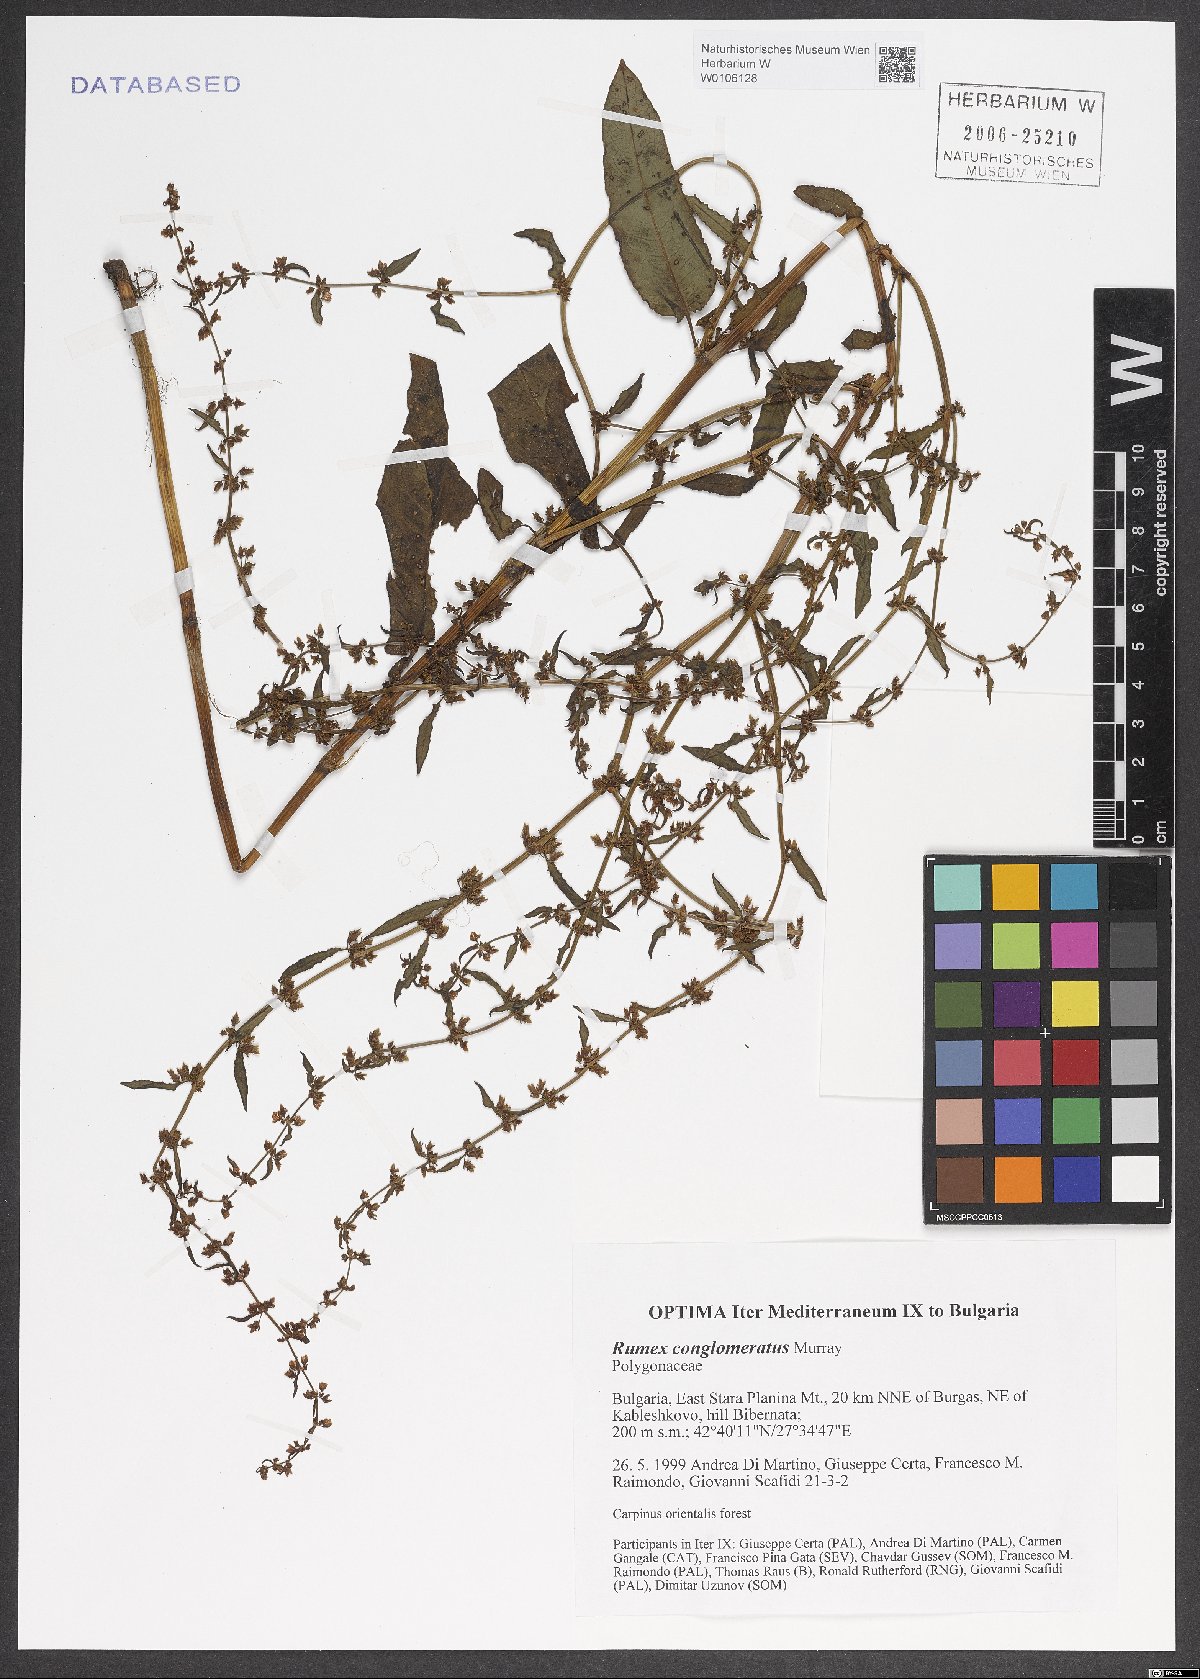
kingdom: Plantae
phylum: Tracheophyta
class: Magnoliopsida
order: Caryophyllales
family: Polygonaceae
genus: Rumex
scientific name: Rumex conglomeratus
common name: Clustered dock
